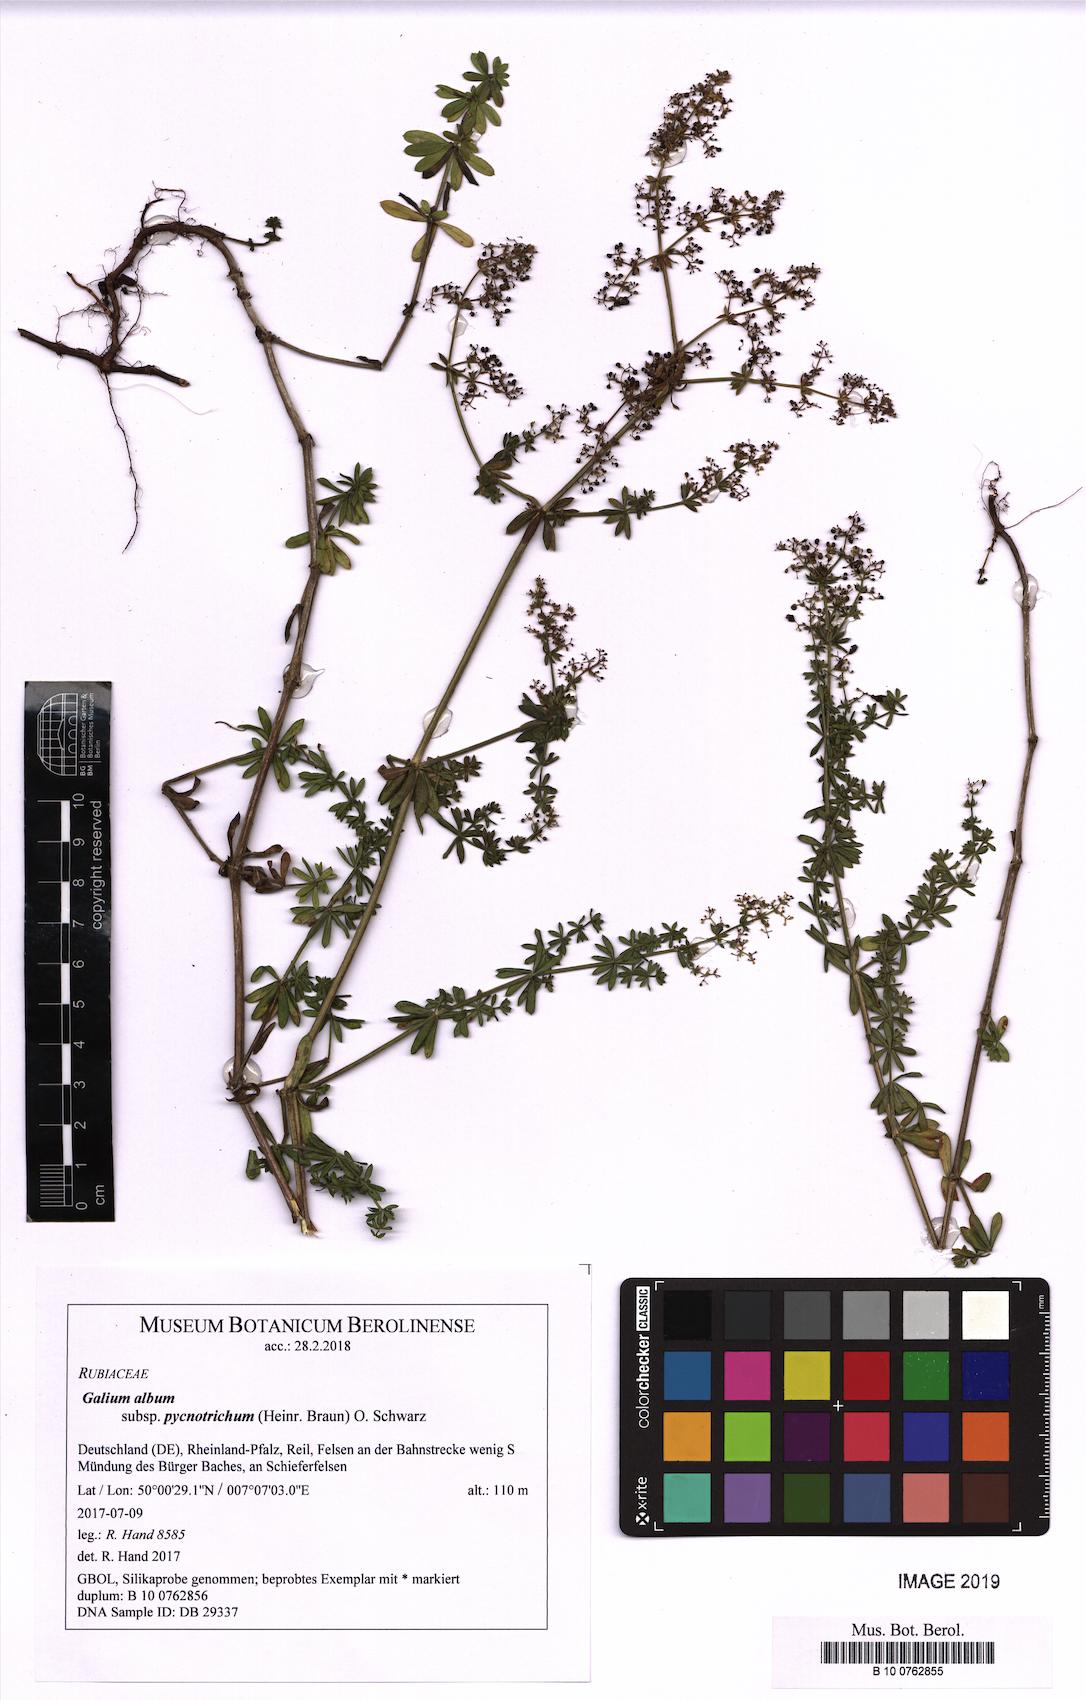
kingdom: Plantae
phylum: Tracheophyta
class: Magnoliopsida
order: Gentianales
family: Rubiaceae
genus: Galium
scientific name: Galium album
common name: White bedstraw
